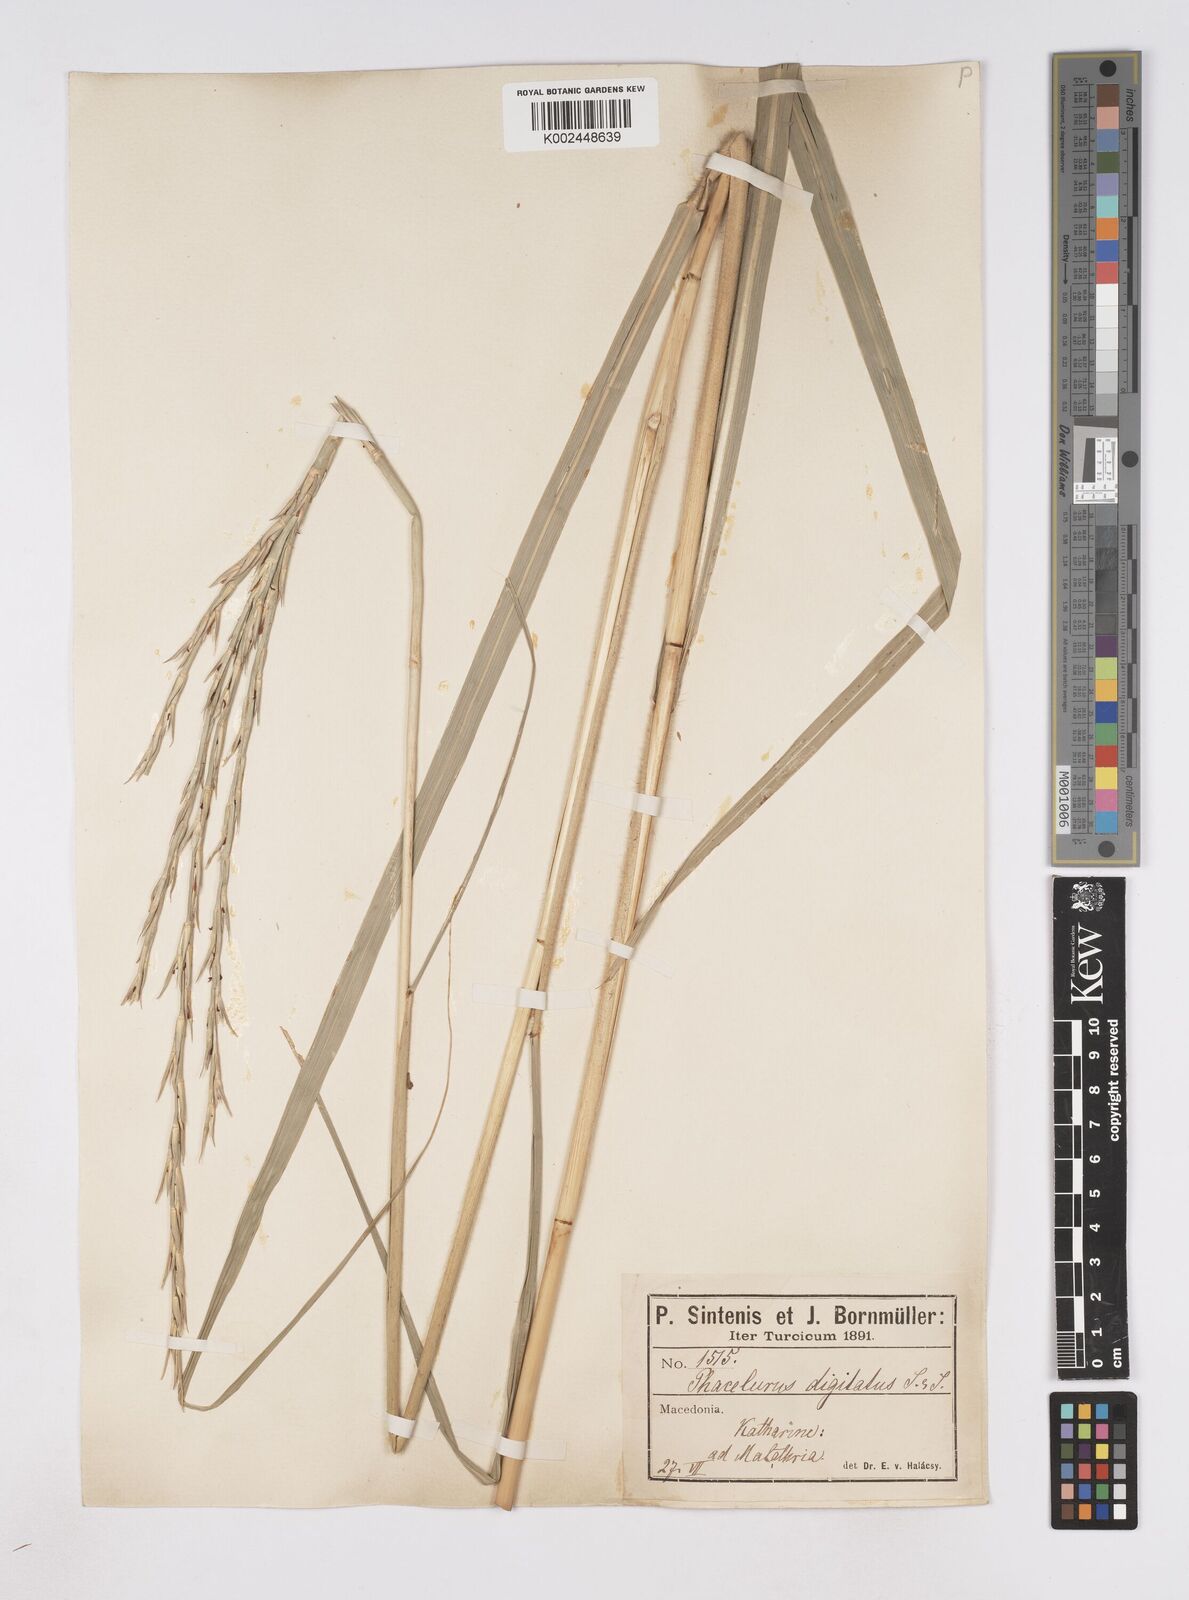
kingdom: Plantae
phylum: Tracheophyta
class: Liliopsida
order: Poales
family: Poaceae
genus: Phacelurus
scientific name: Phacelurus digitatus
